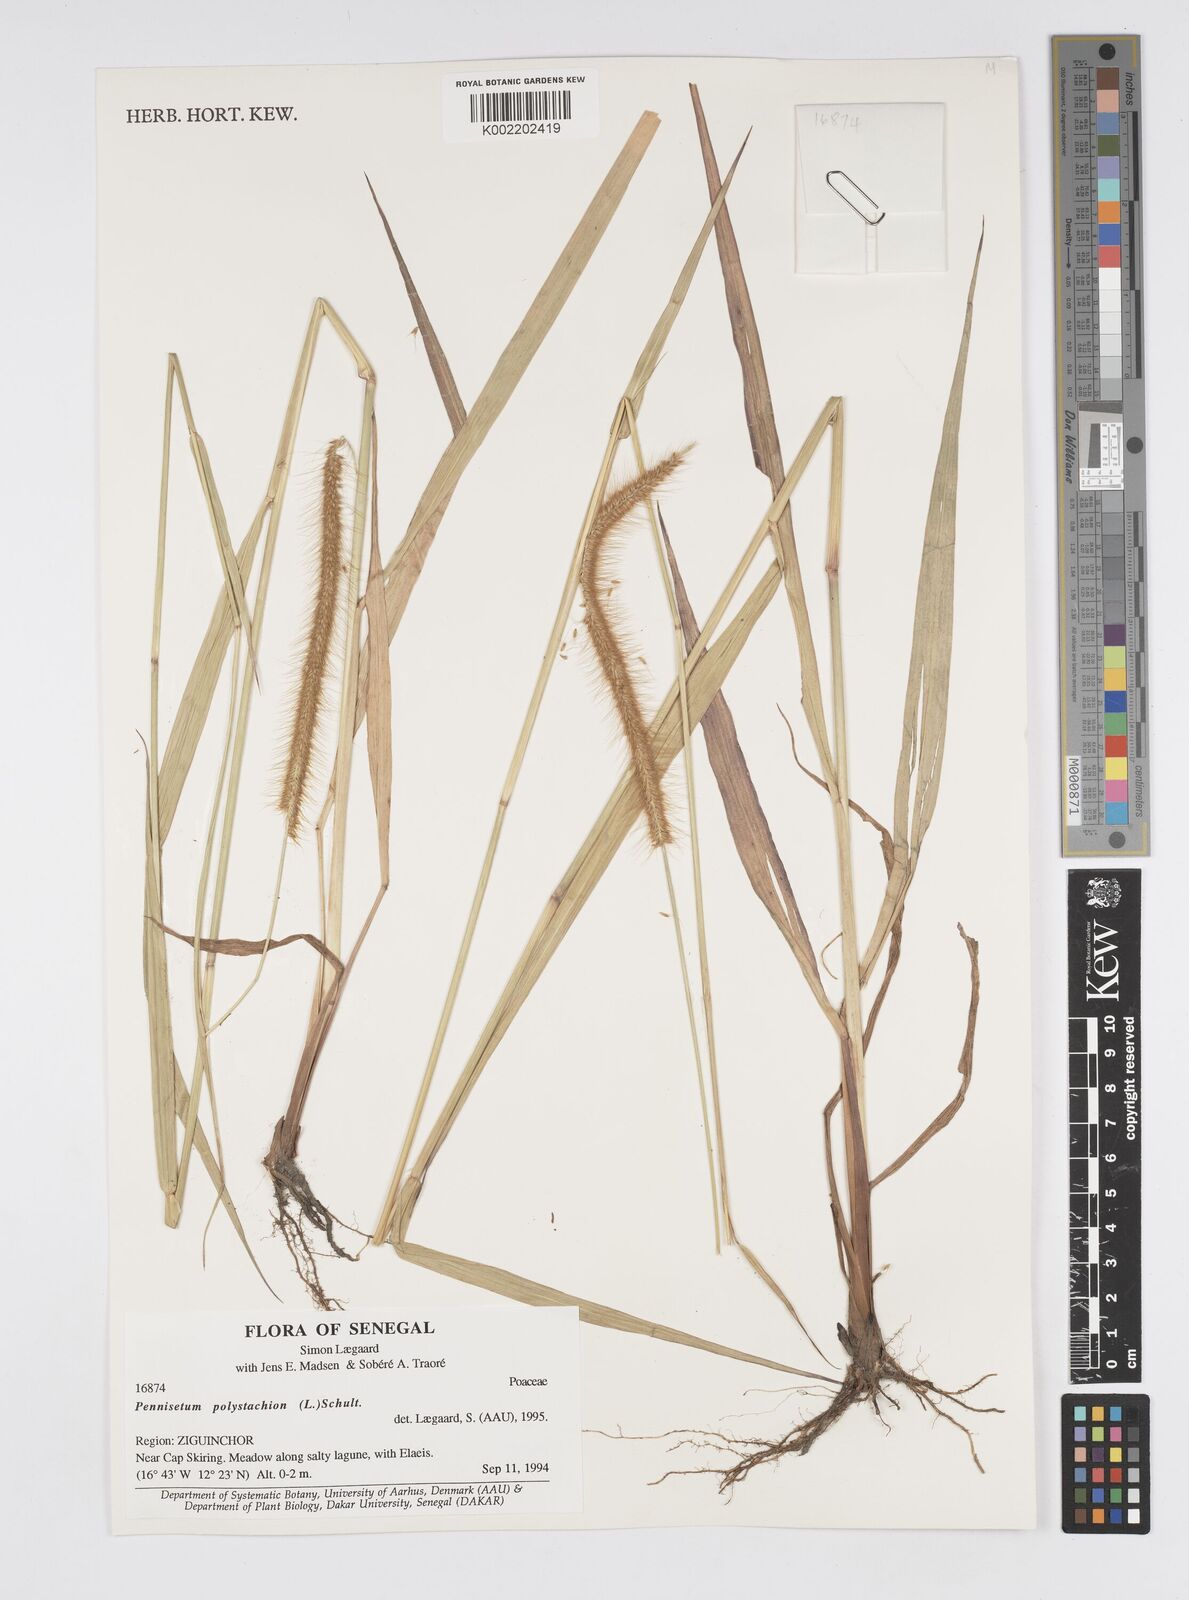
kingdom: Plantae
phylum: Tracheophyta
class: Liliopsida
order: Poales
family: Poaceae
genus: Setaria
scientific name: Setaria parviflora
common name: Knotroot bristle-grass
